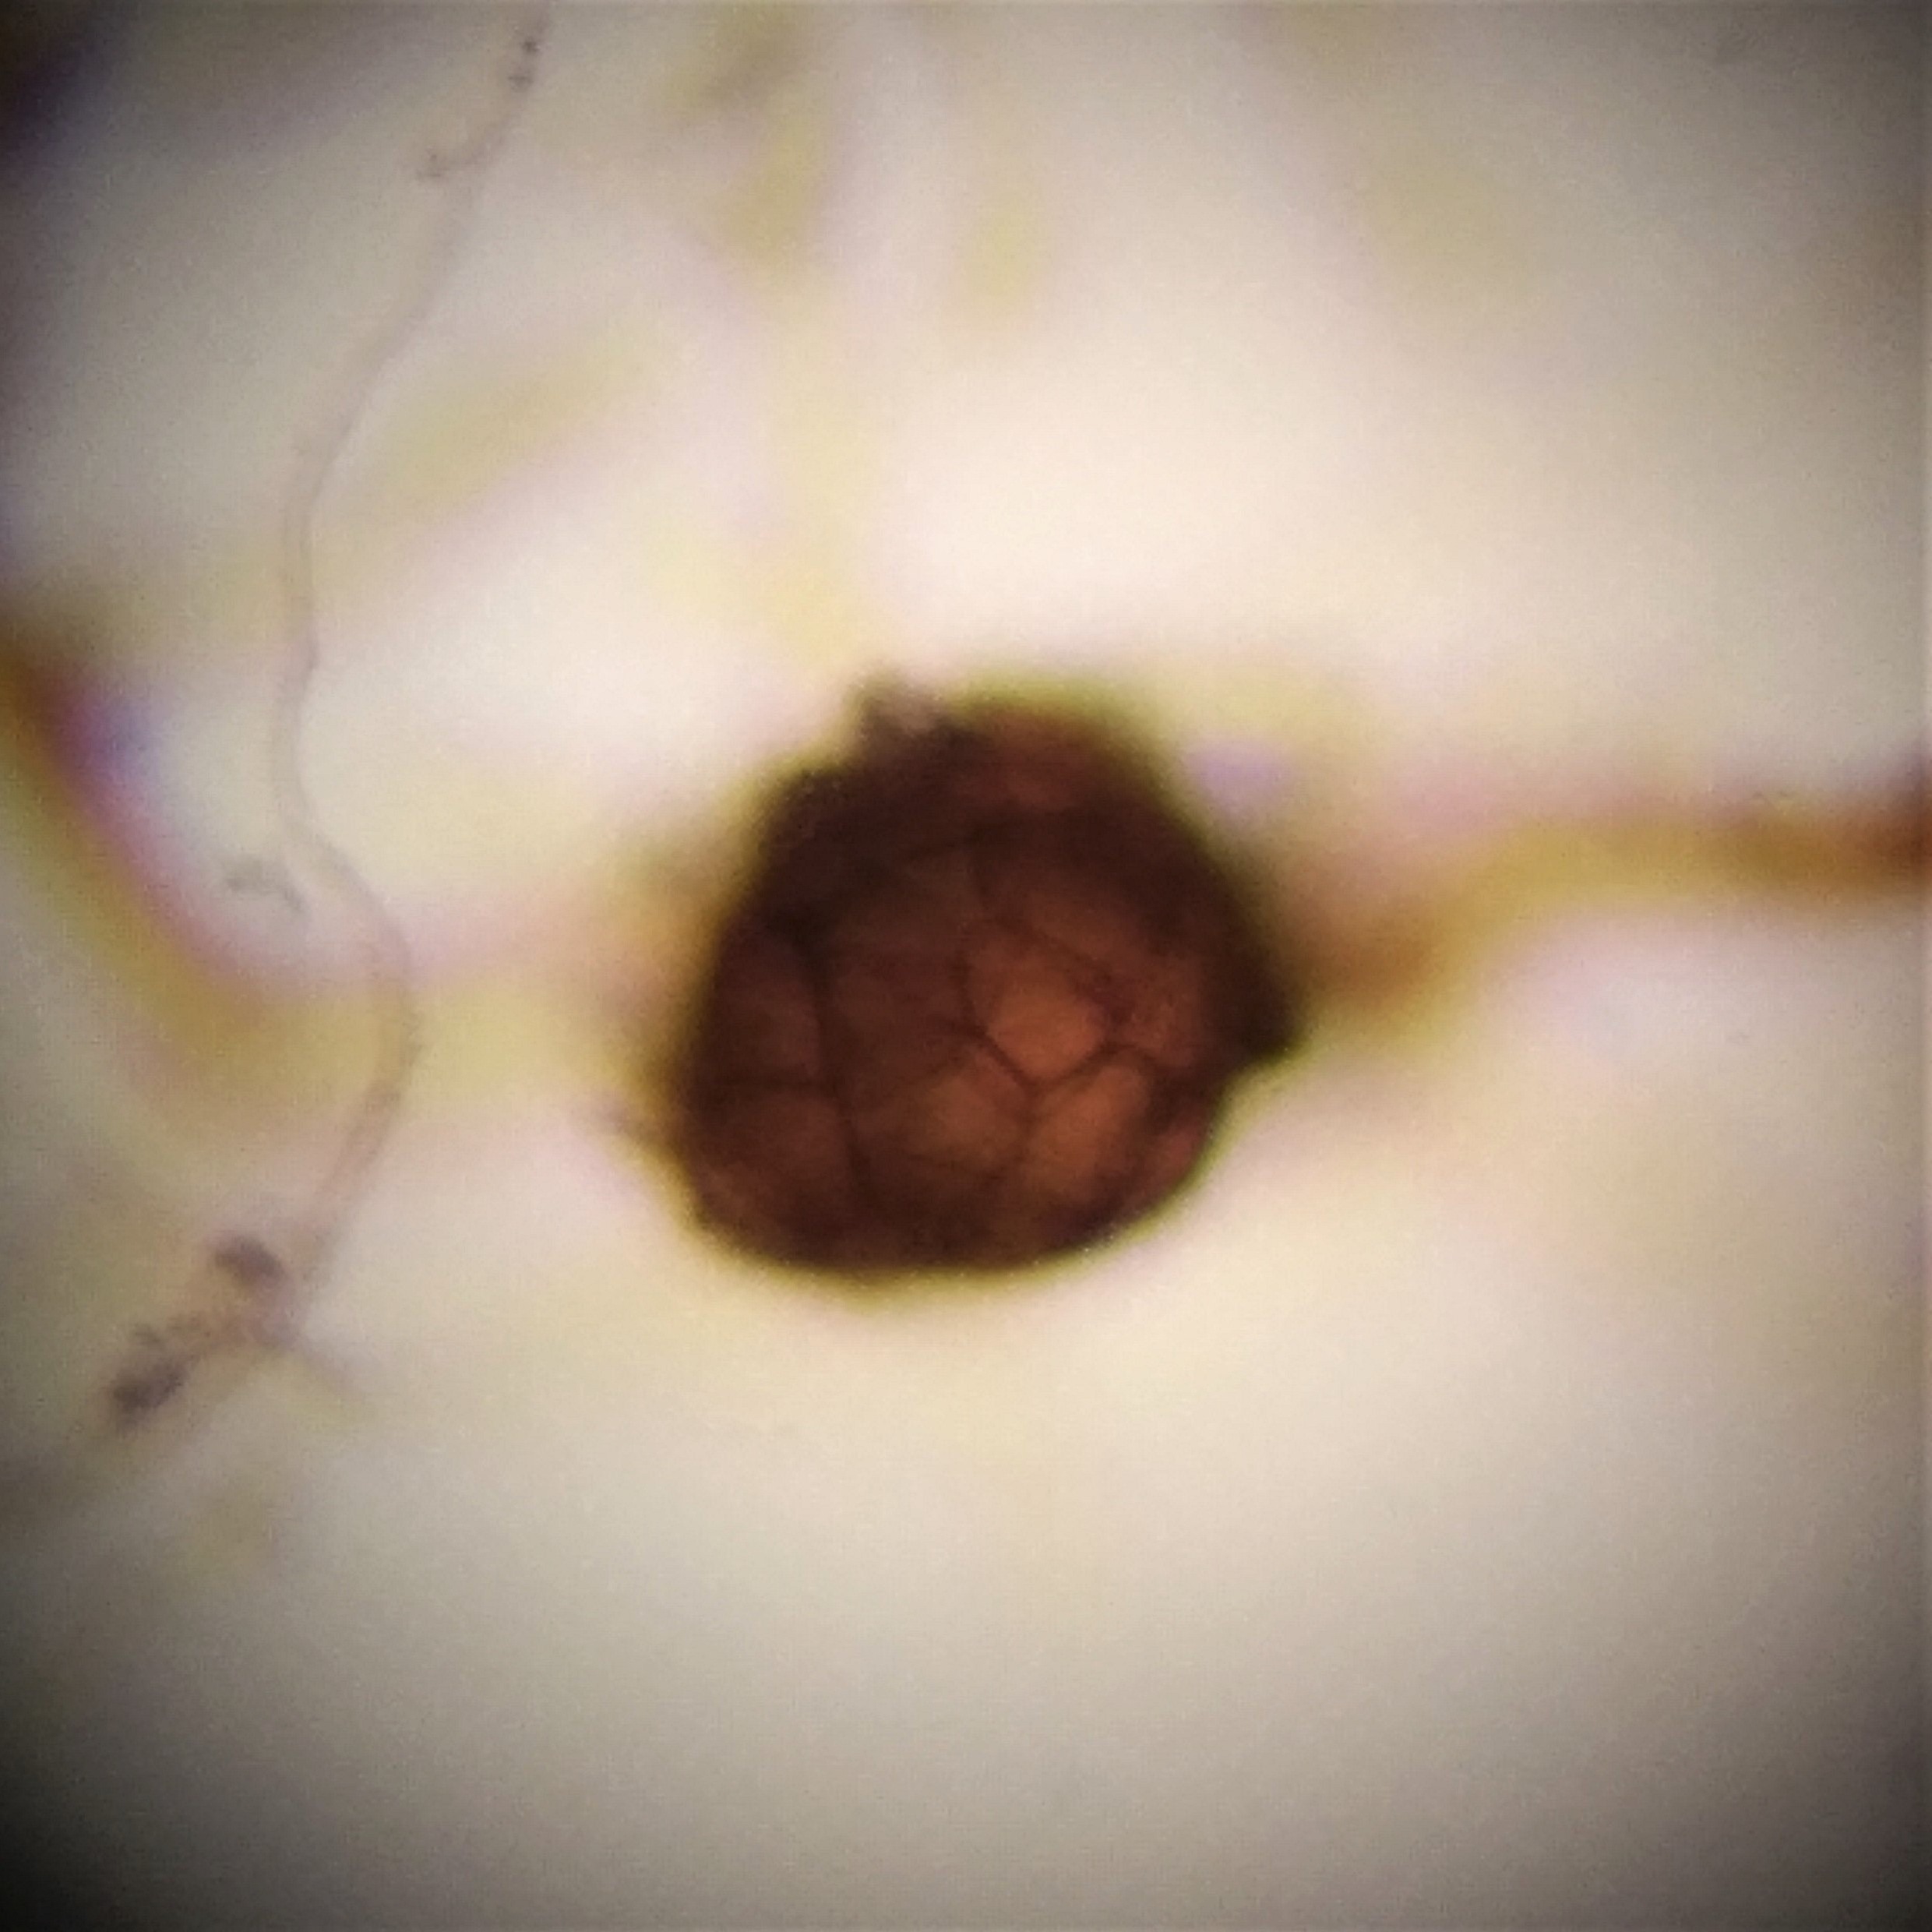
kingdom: Plantae
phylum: Bryophyta
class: Bryopsida
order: Dicranales
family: Dicranellaceae
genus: Dicranella
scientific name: Dicranella schreberiana
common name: Krum skævkapsel
